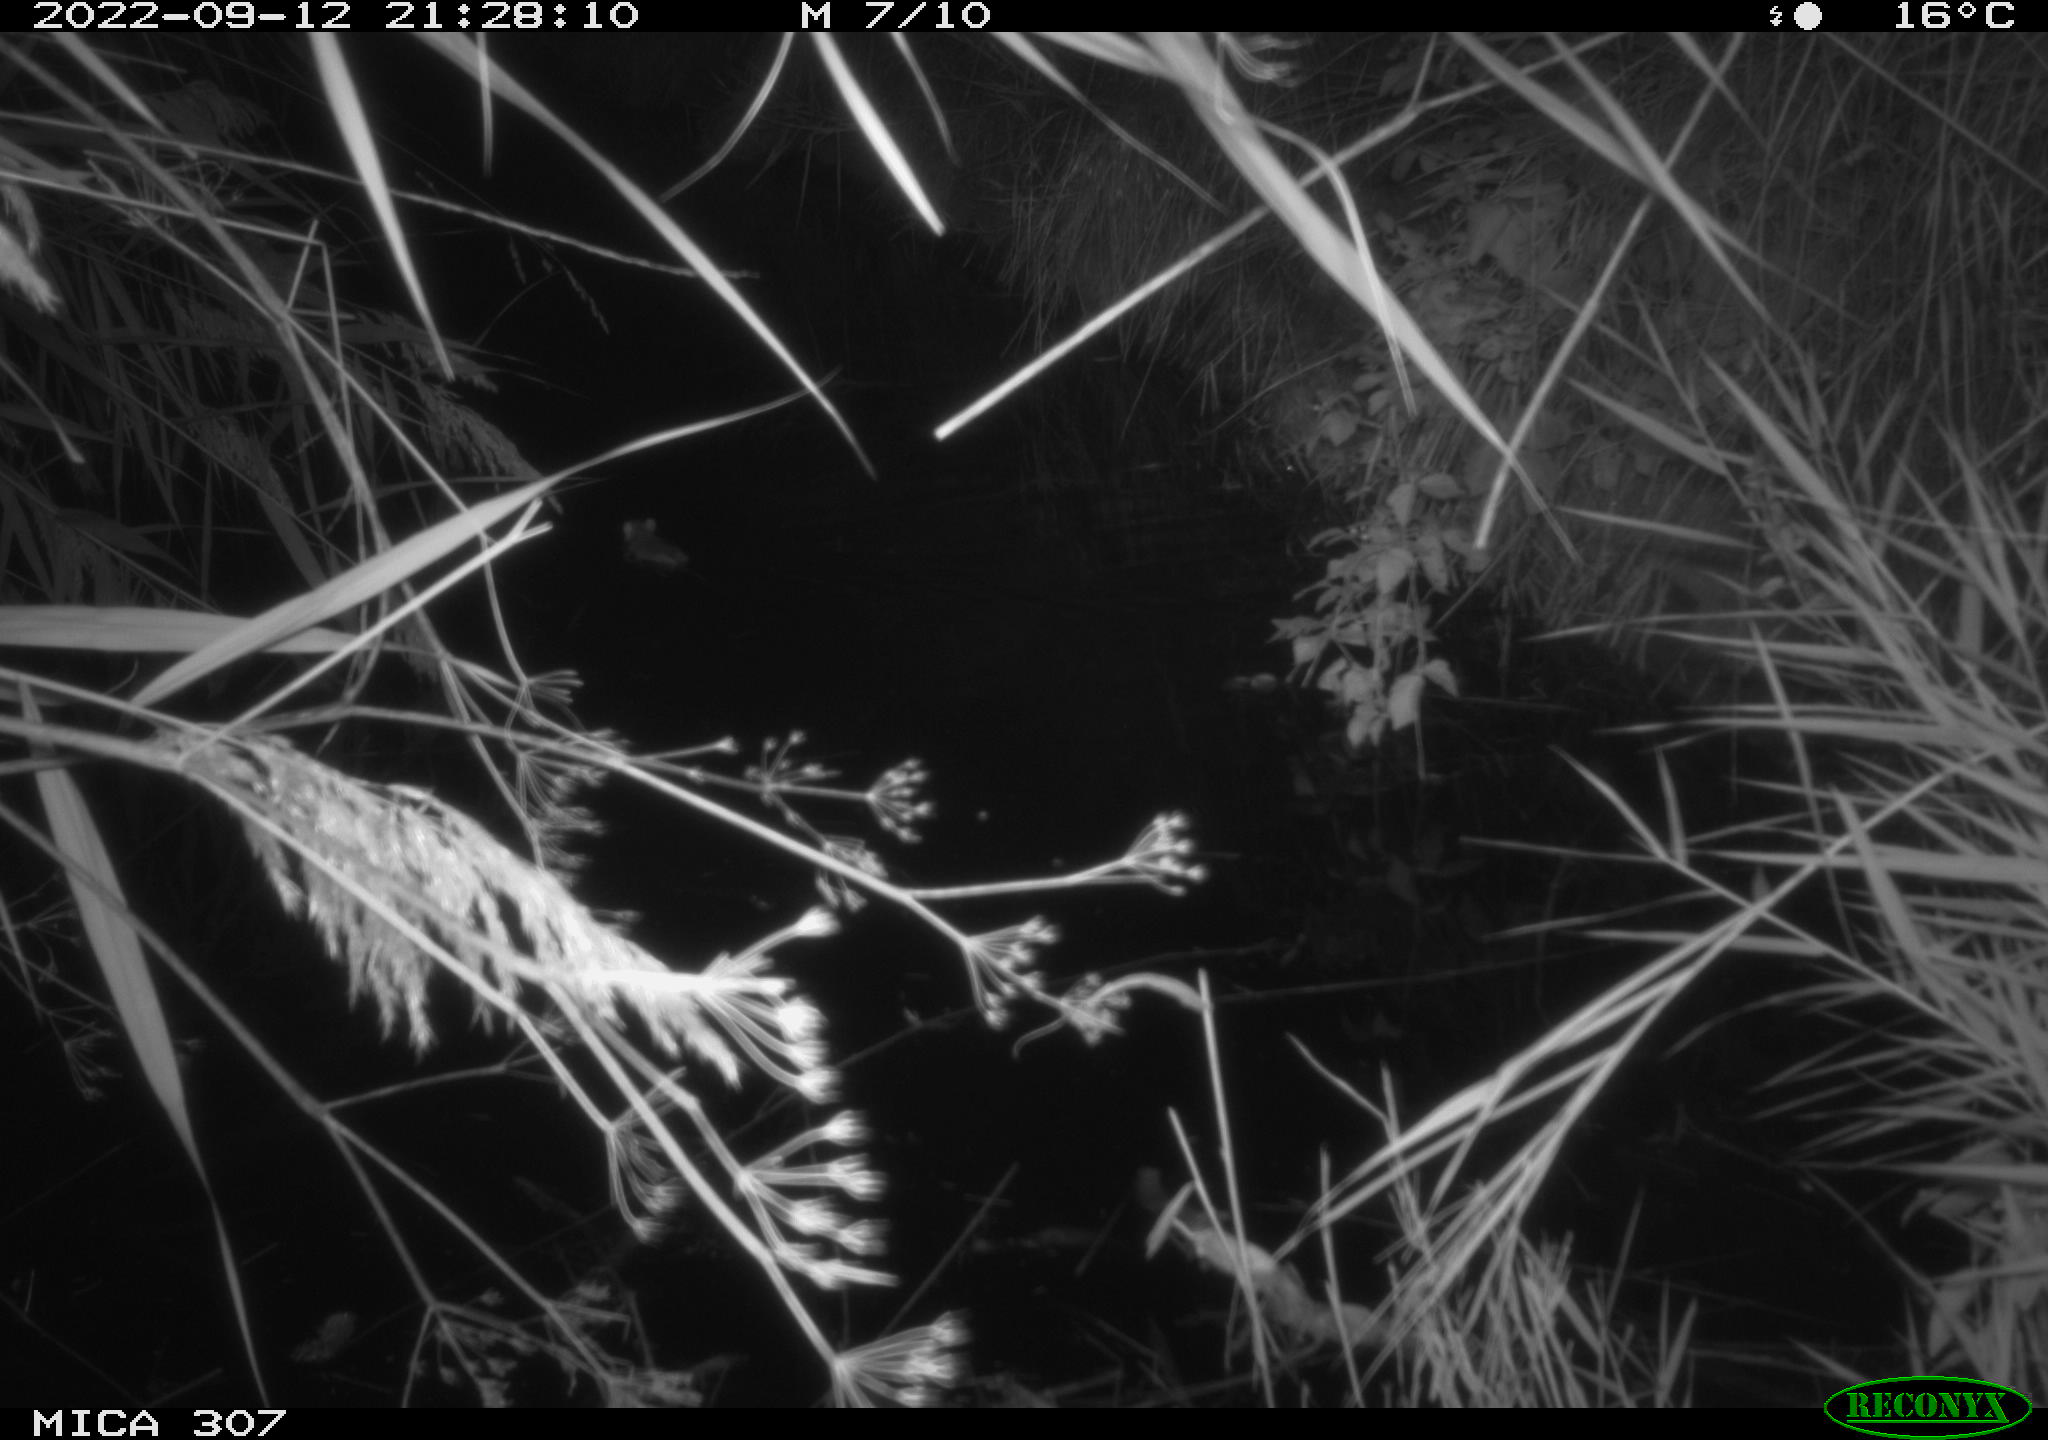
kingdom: Animalia
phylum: Chordata
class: Mammalia
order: Rodentia
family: Muridae
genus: Rattus
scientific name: Rattus norvegicus
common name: Brown rat
